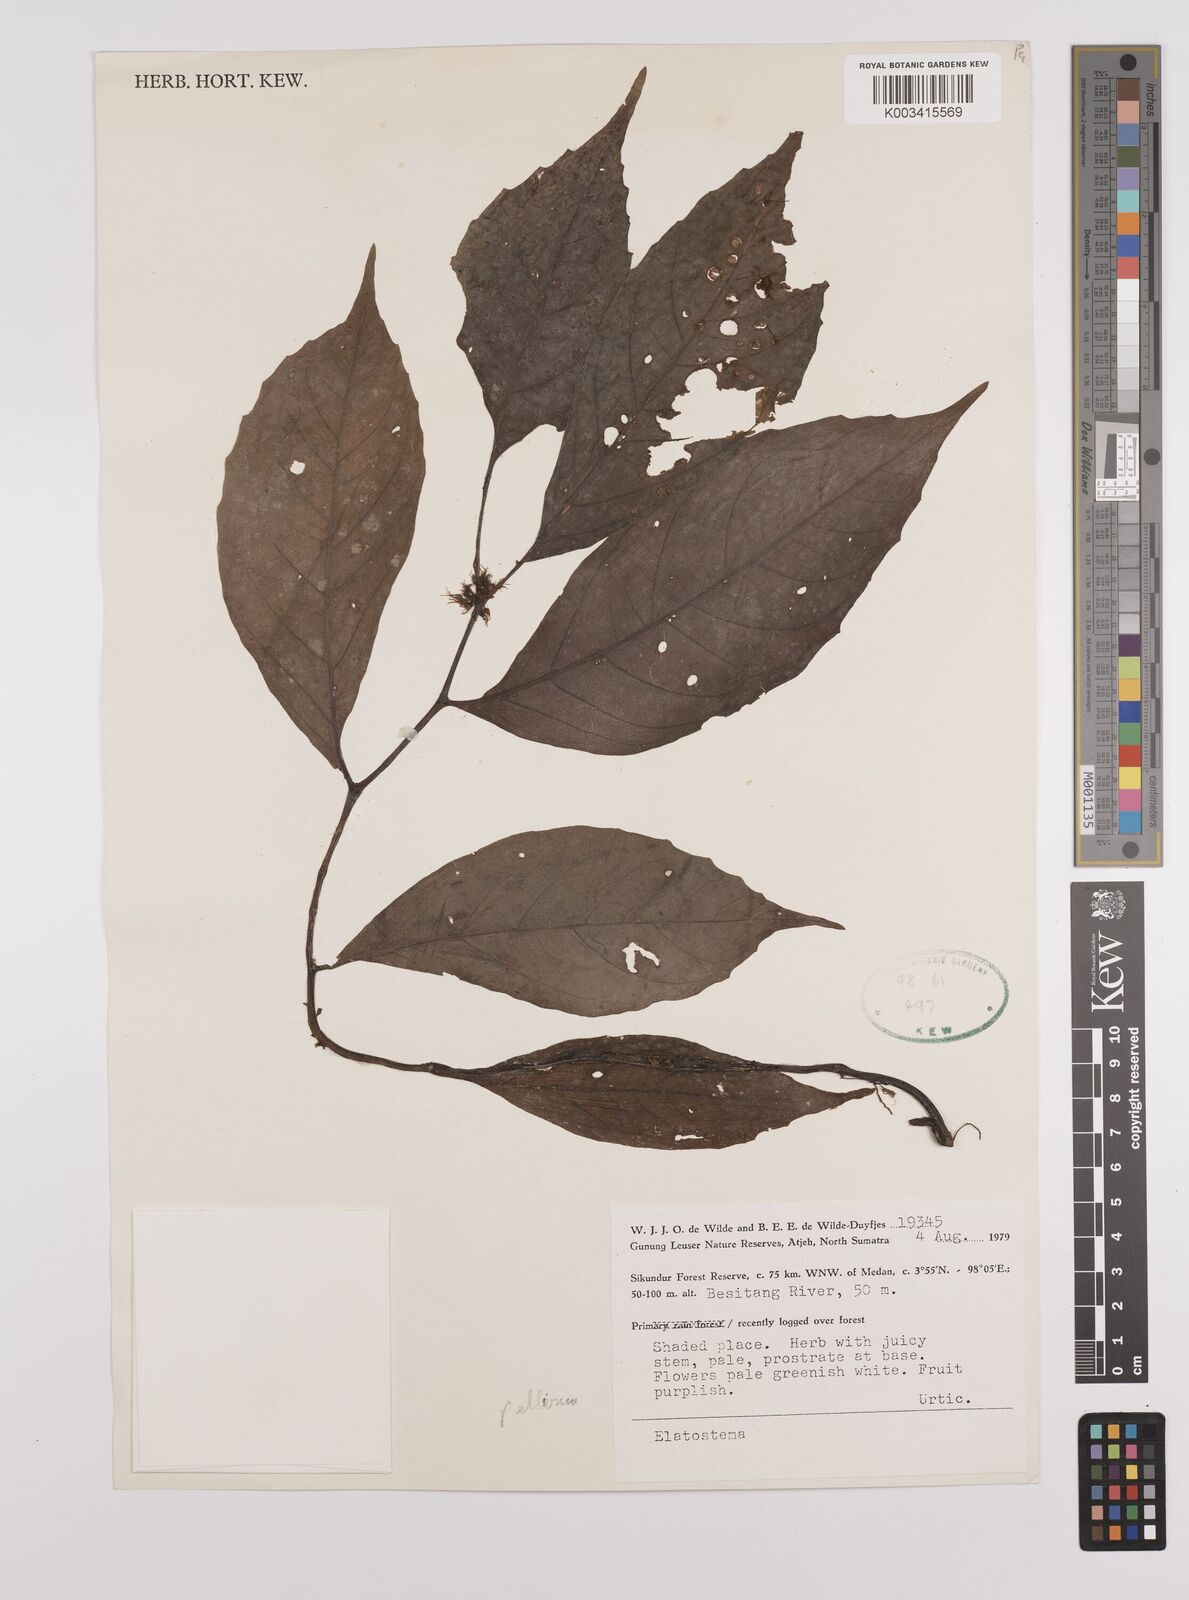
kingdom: Plantae
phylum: Tracheophyta
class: Magnoliopsida
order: Rosales
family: Urticaceae
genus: Elatostema
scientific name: Elatostema
